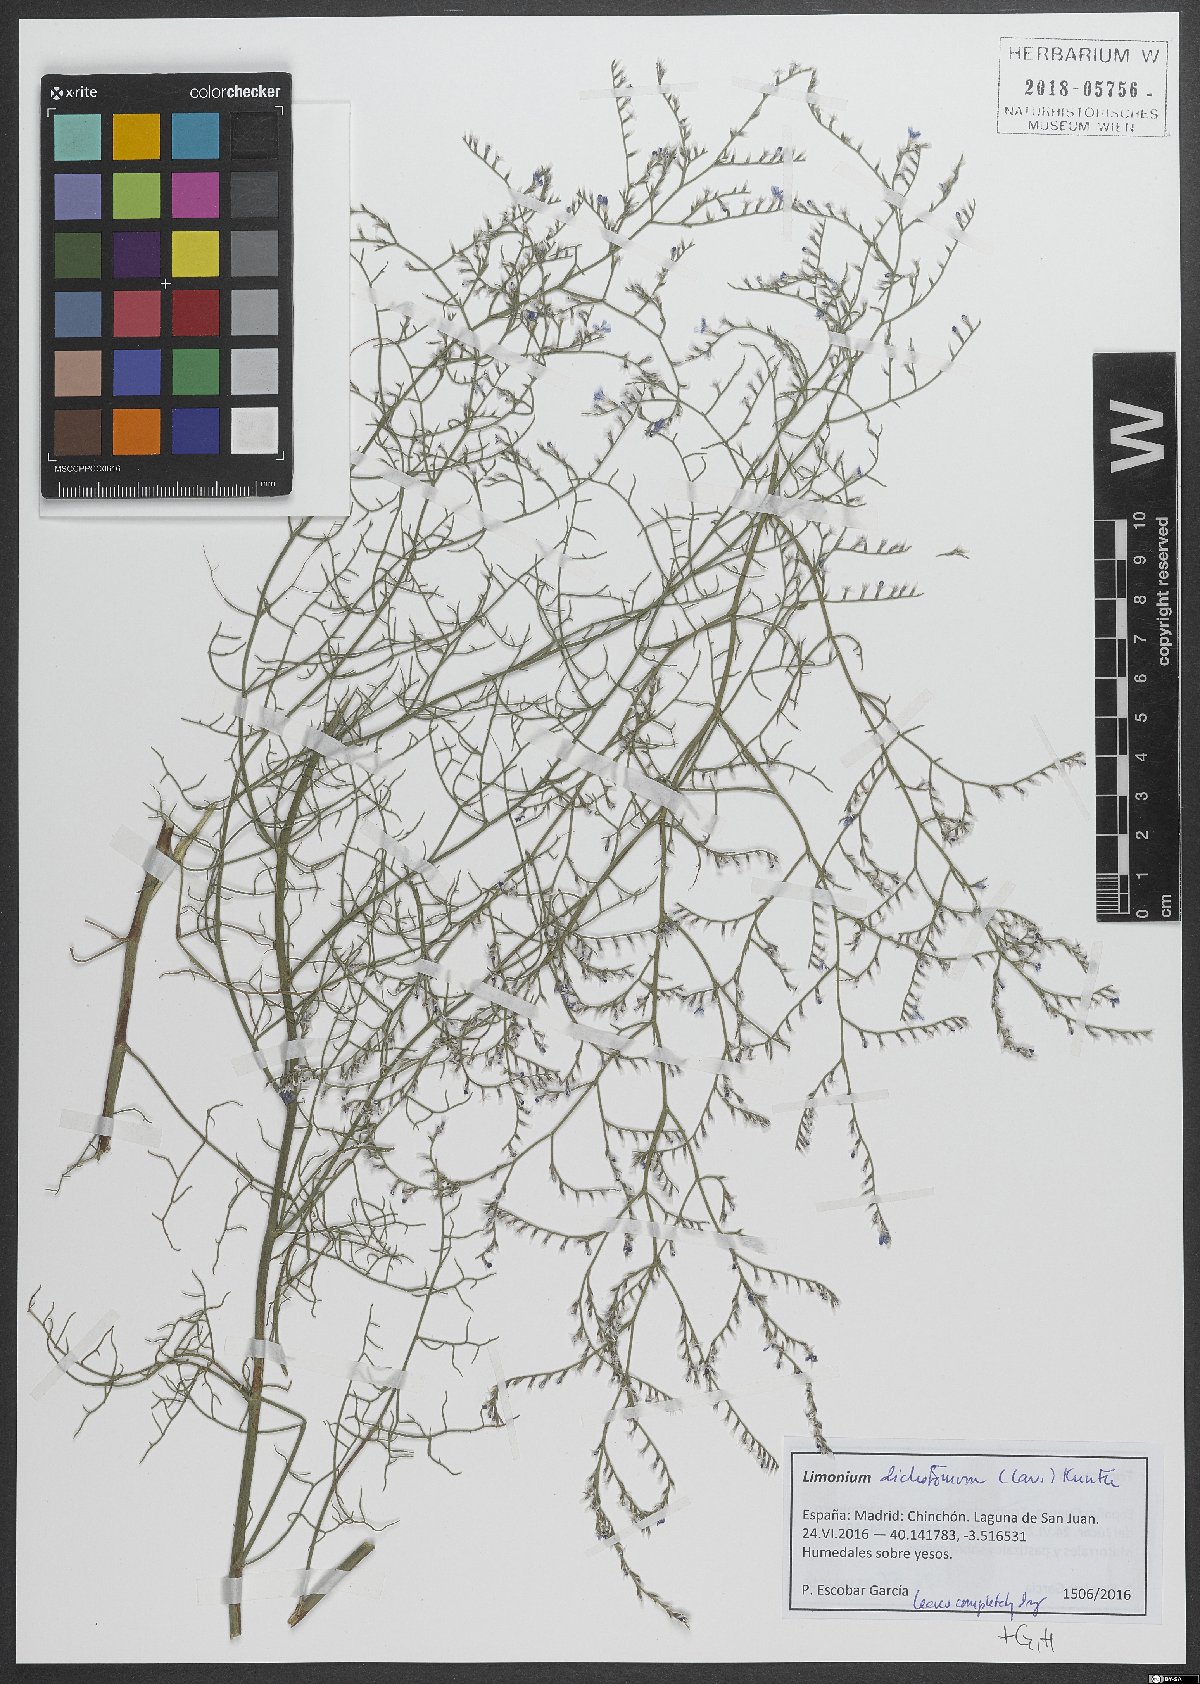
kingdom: Plantae
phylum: Tracheophyta
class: Magnoliopsida
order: Caryophyllales
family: Plumbaginaceae
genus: Limonium
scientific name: Limonium dichotomum
